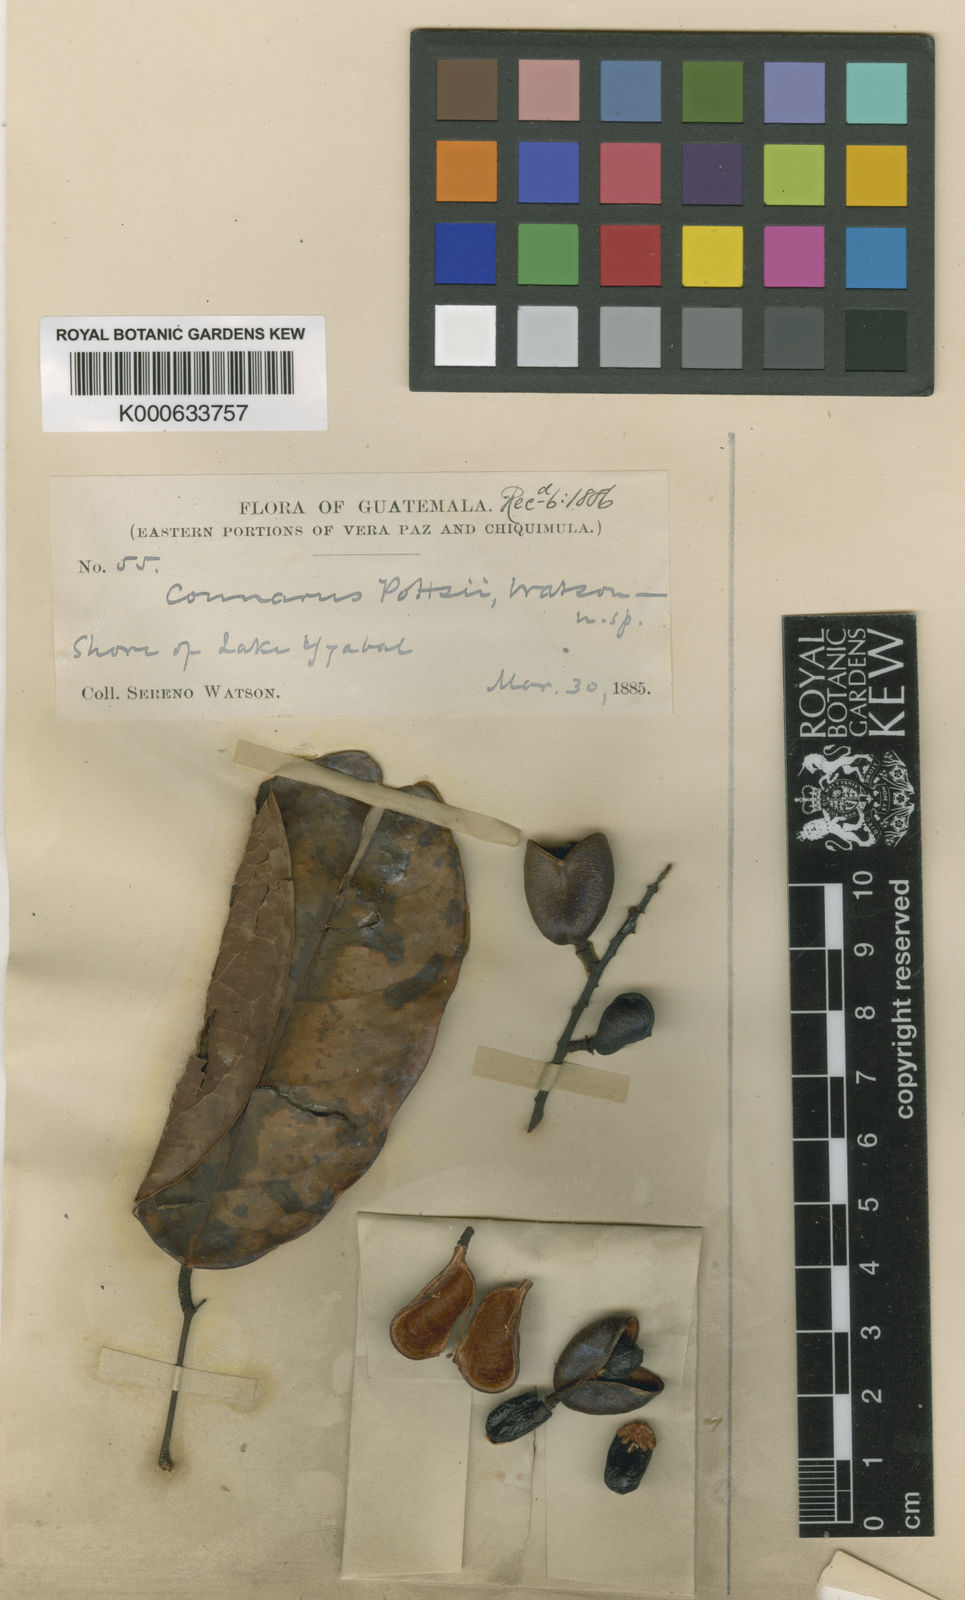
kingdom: Plantae
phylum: Tracheophyta
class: Magnoliopsida
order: Oxalidales
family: Connaraceae
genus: Connarus
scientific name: Connarus panamensis
